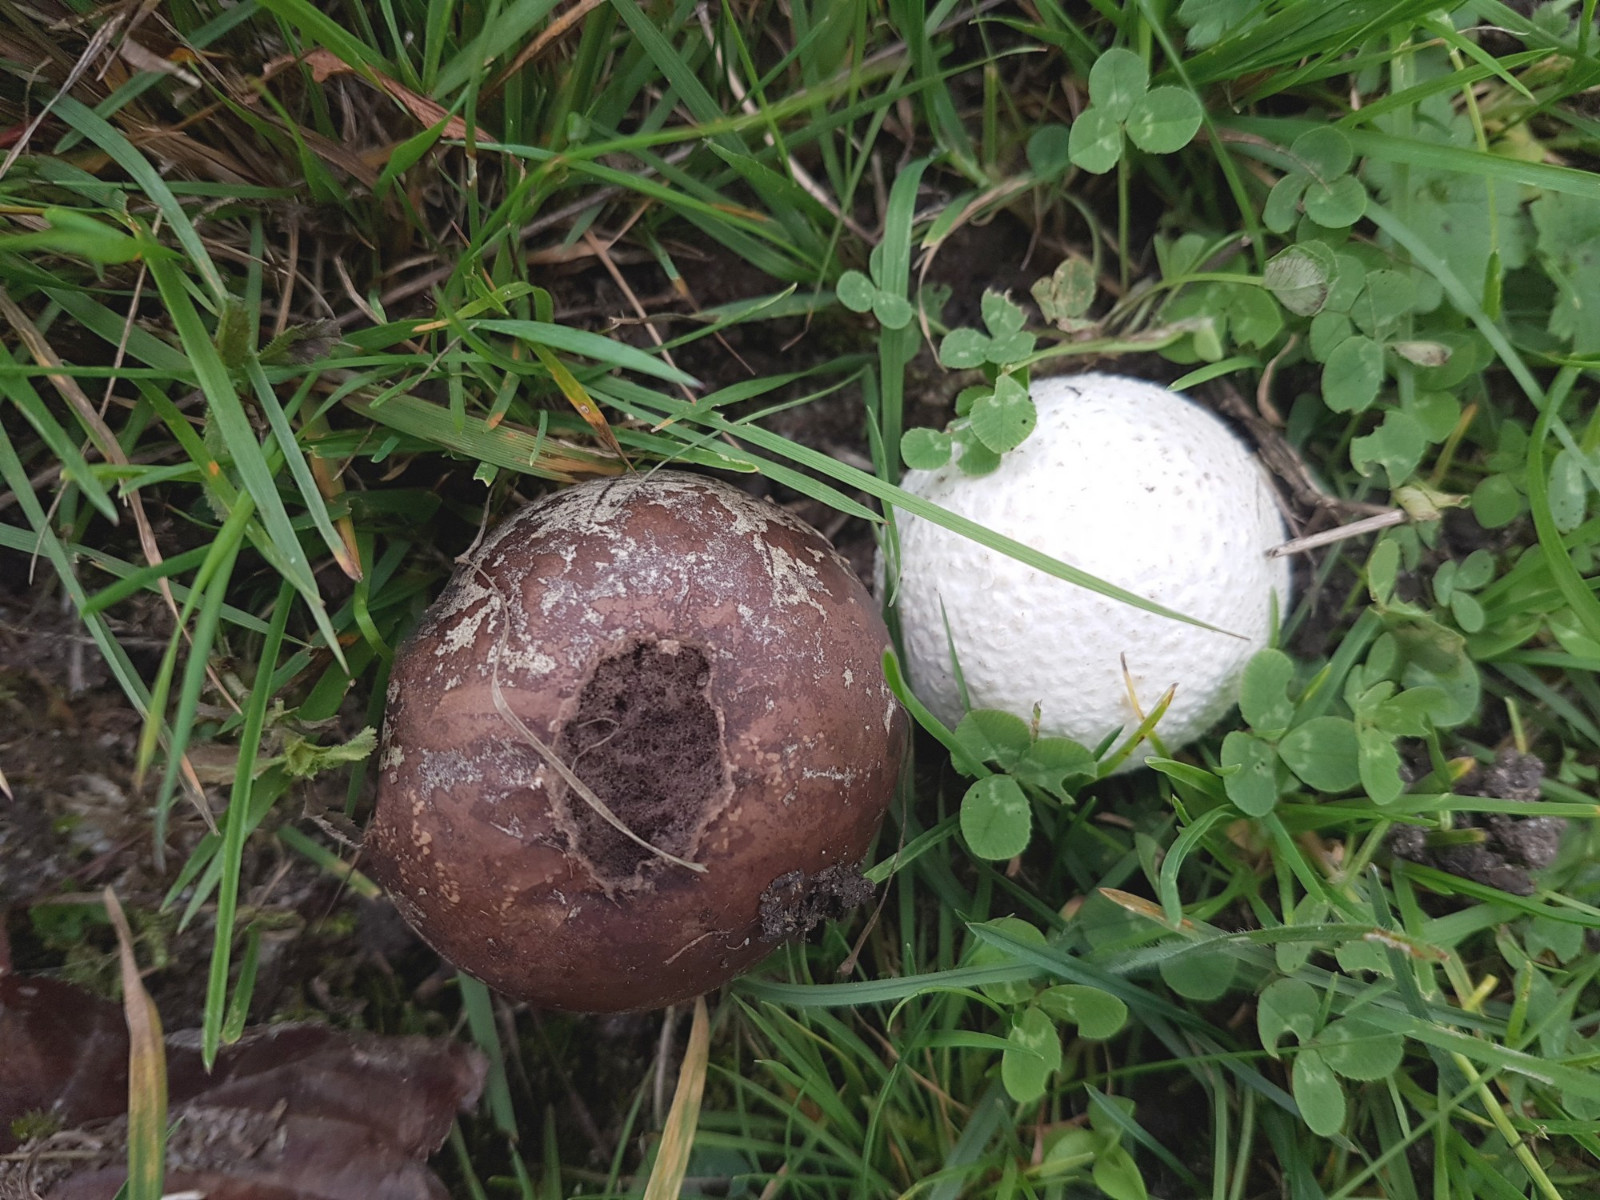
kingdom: Fungi
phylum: Basidiomycota
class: Agaricomycetes
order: Agaricales
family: Lycoperdaceae
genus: Bovista
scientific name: Bovista nigrescens
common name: sortagtig bovist
